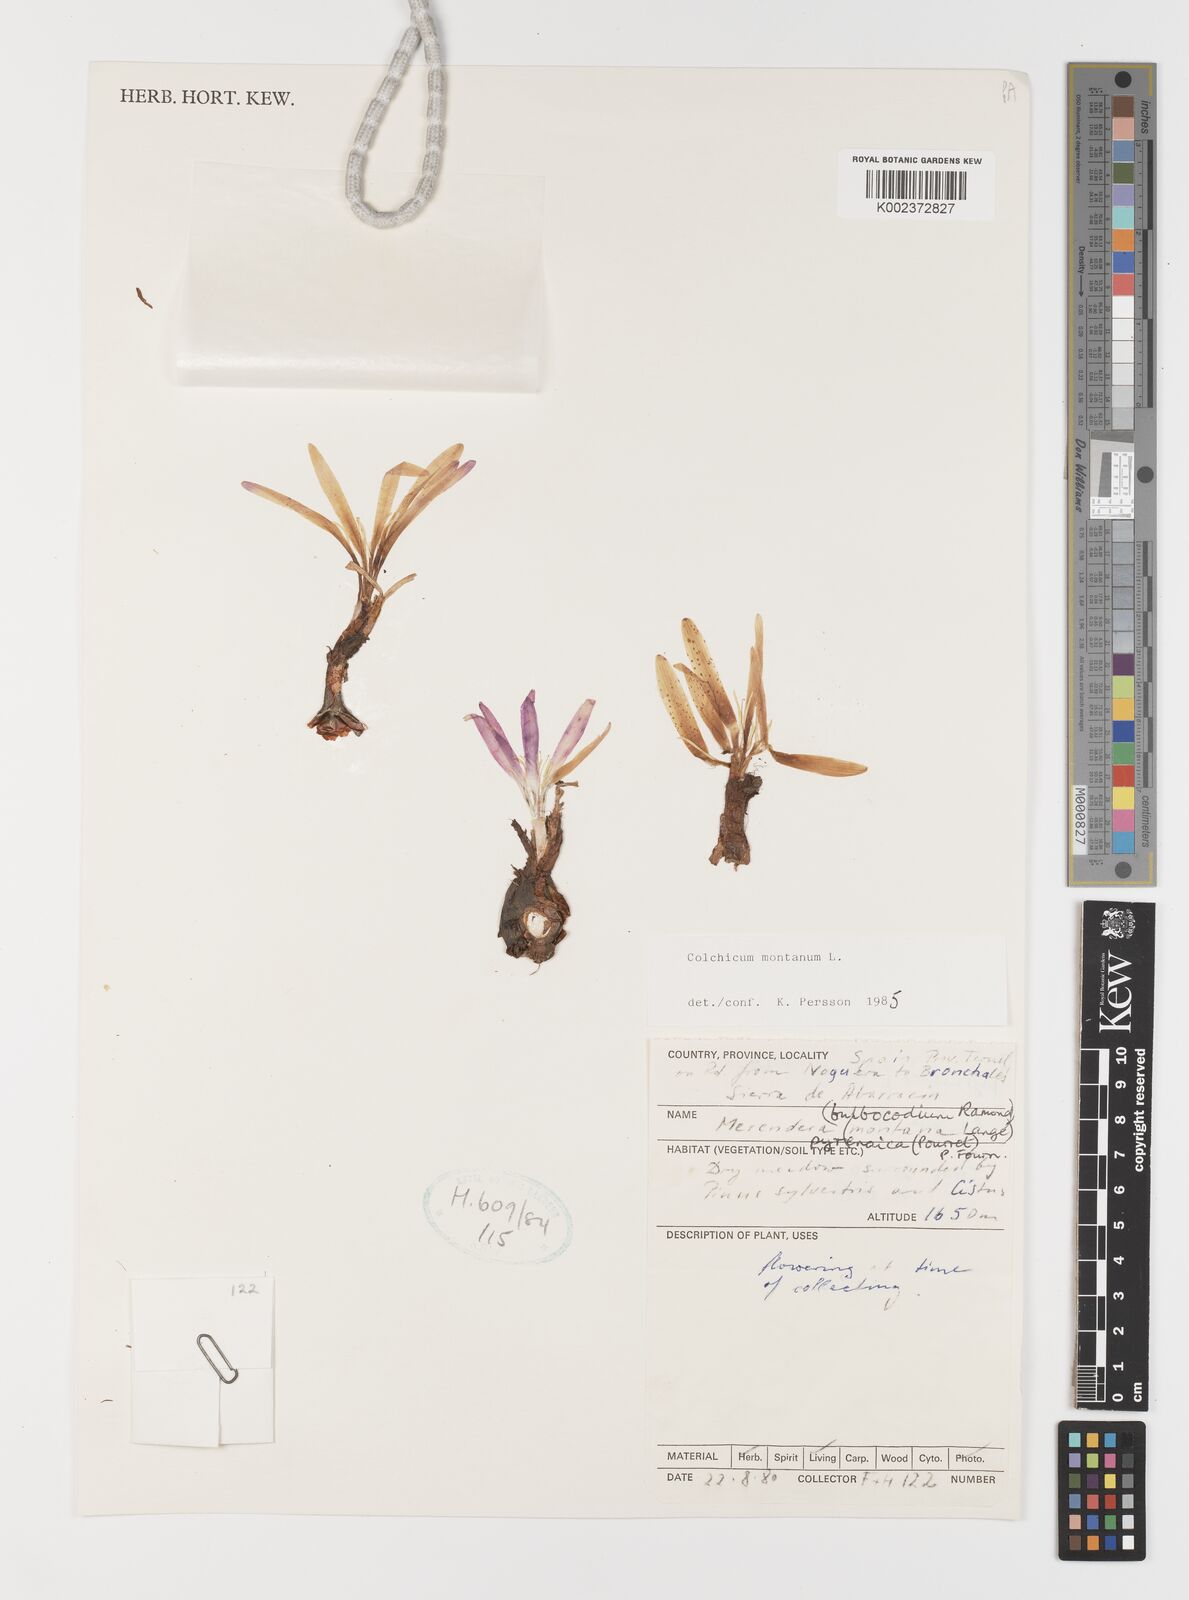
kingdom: Plantae
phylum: Tracheophyta
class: Liliopsida
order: Liliales
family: Colchicaceae
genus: Colchicum
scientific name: Colchicum montanum
